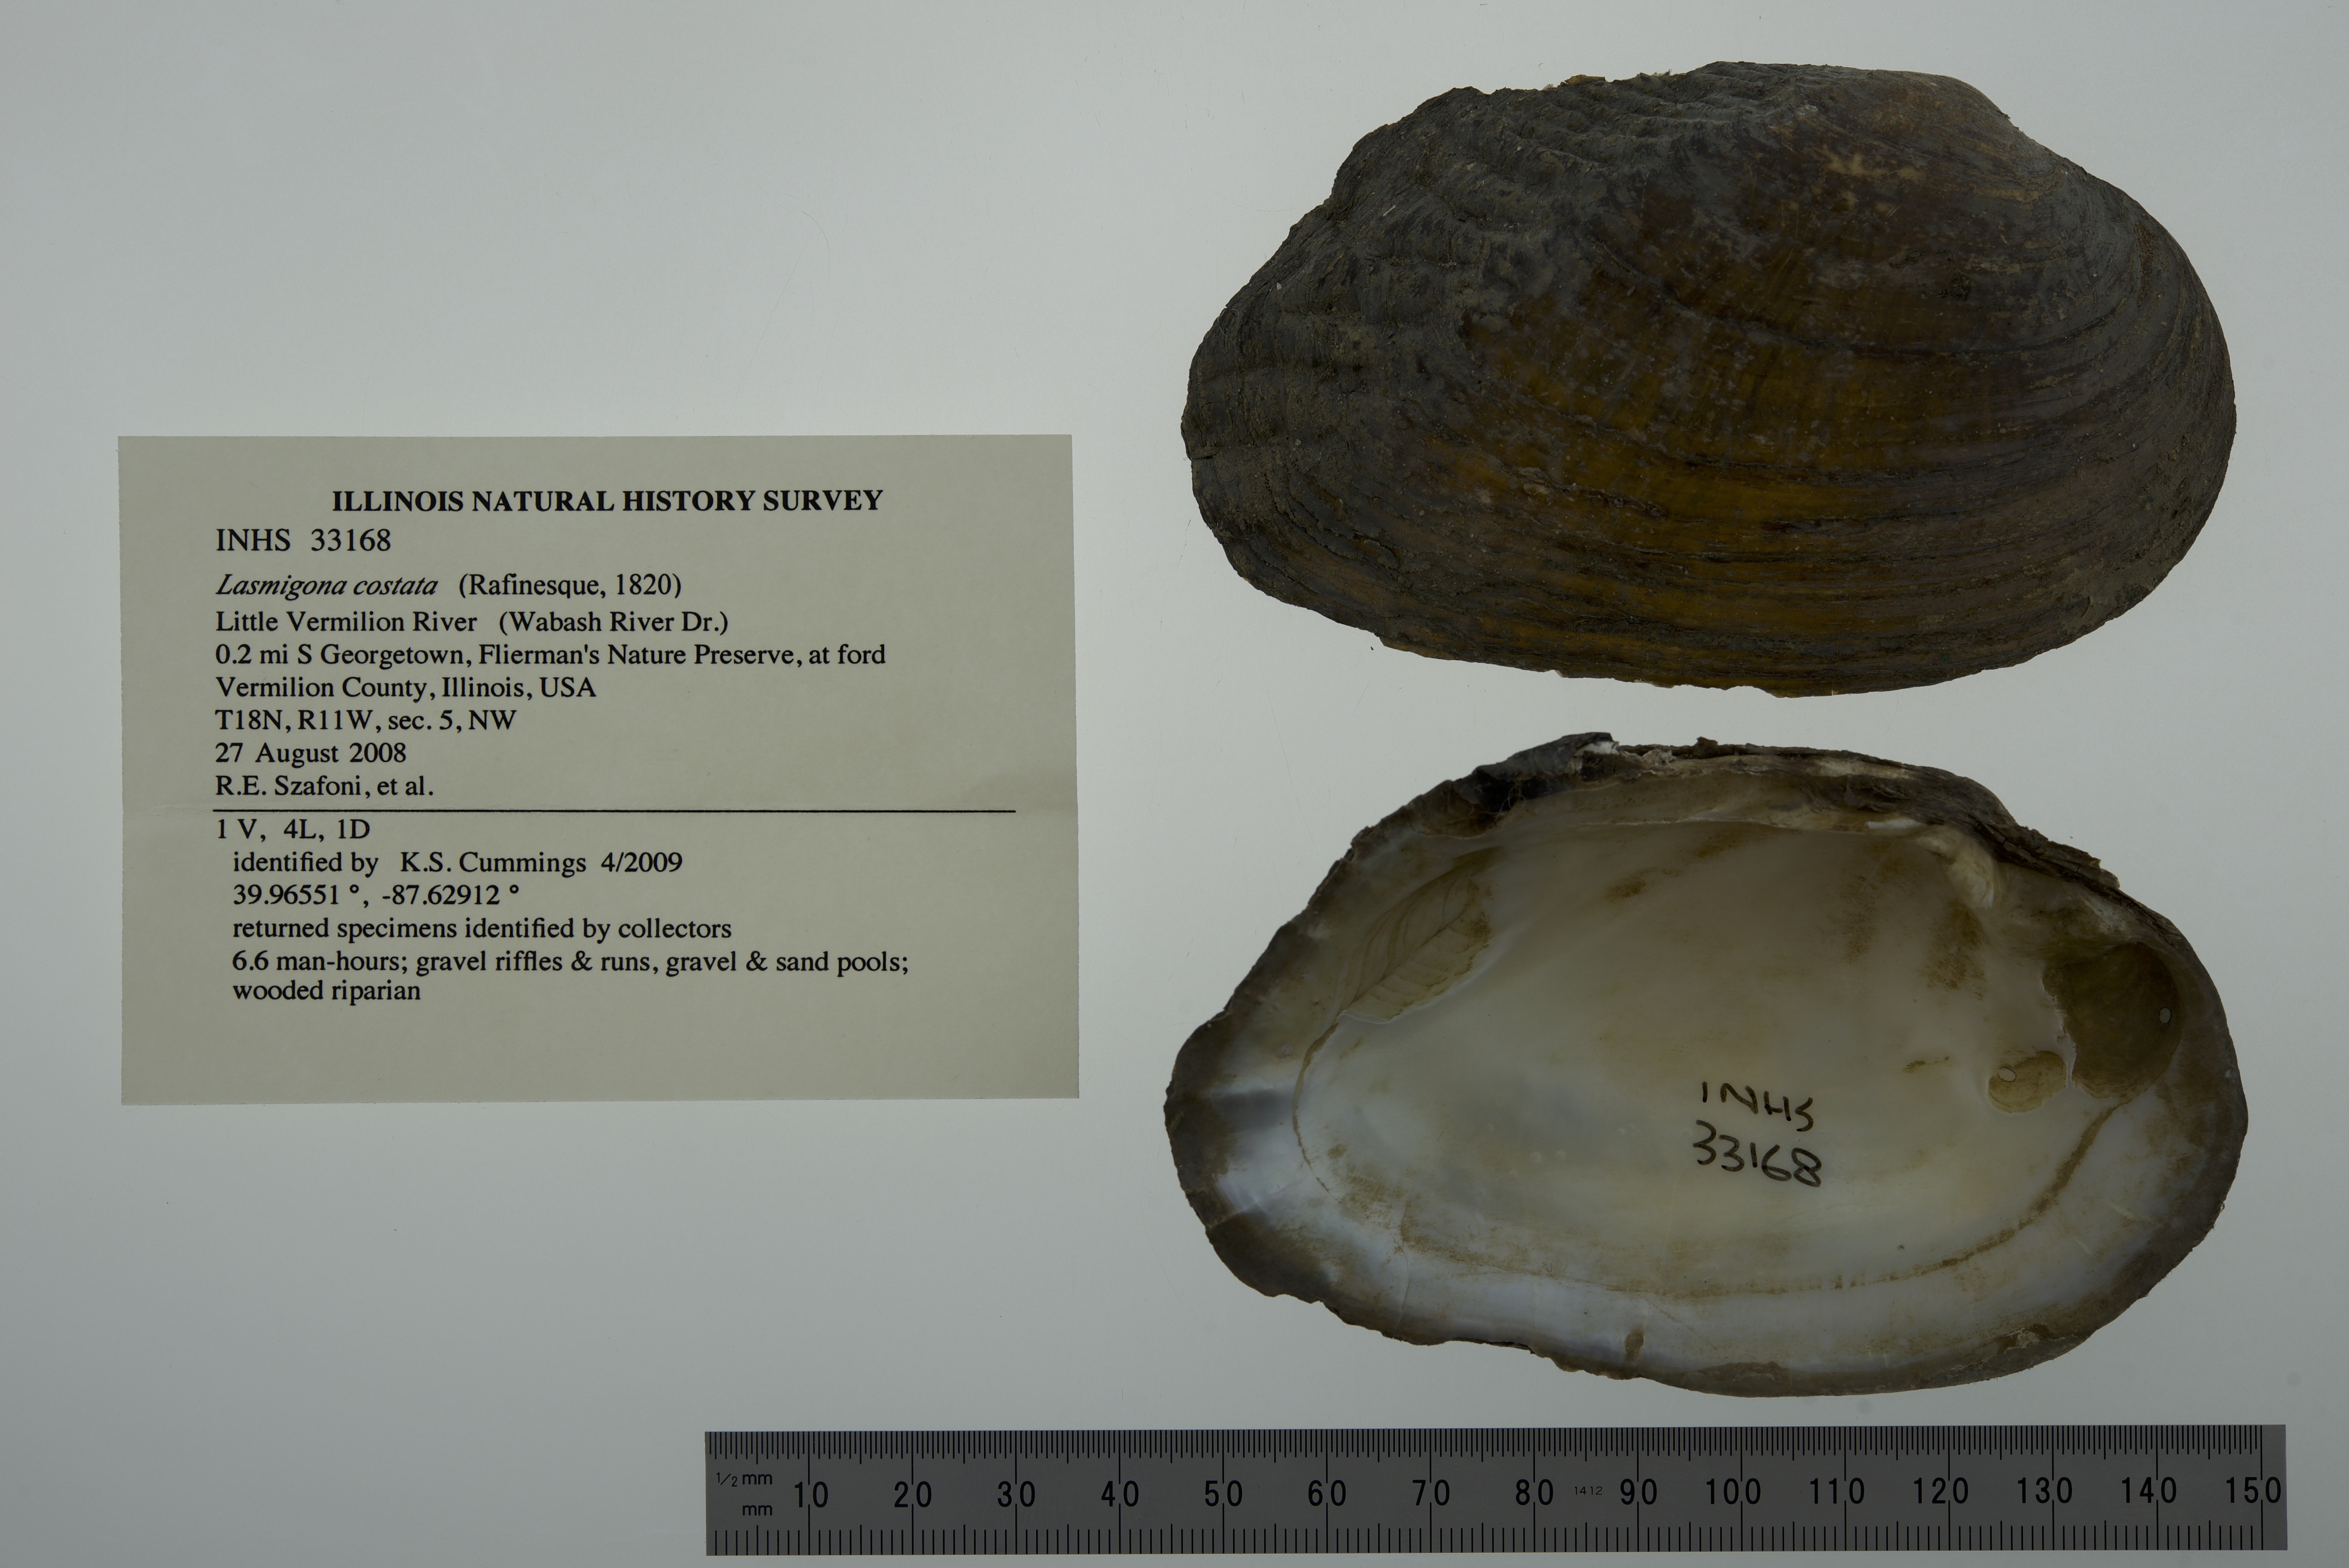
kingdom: Animalia
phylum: Mollusca
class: Bivalvia
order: Unionida
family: Unionidae
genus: Lasmigona
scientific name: Lasmigona costata
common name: Flutedshell
